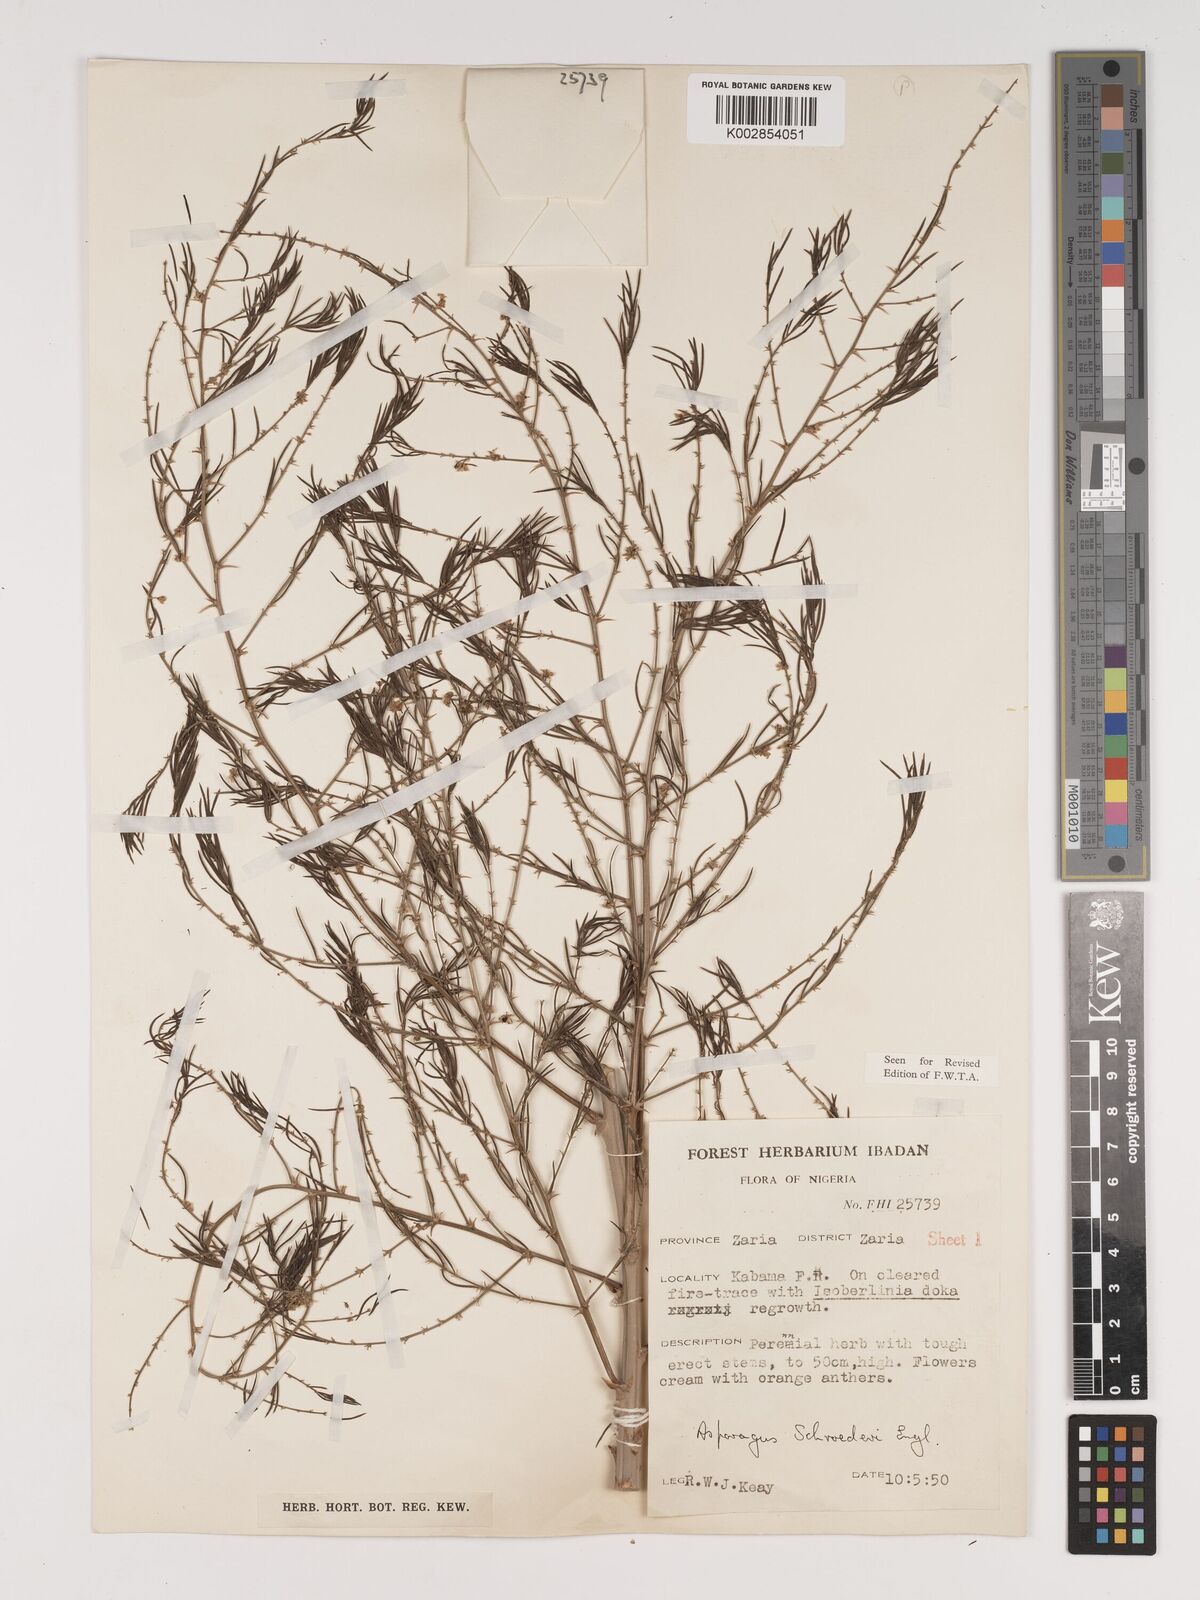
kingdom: Plantae
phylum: Tracheophyta
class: Liliopsida
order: Asparagales
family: Asparagaceae
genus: Asparagus
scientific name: Asparagus schroederi
